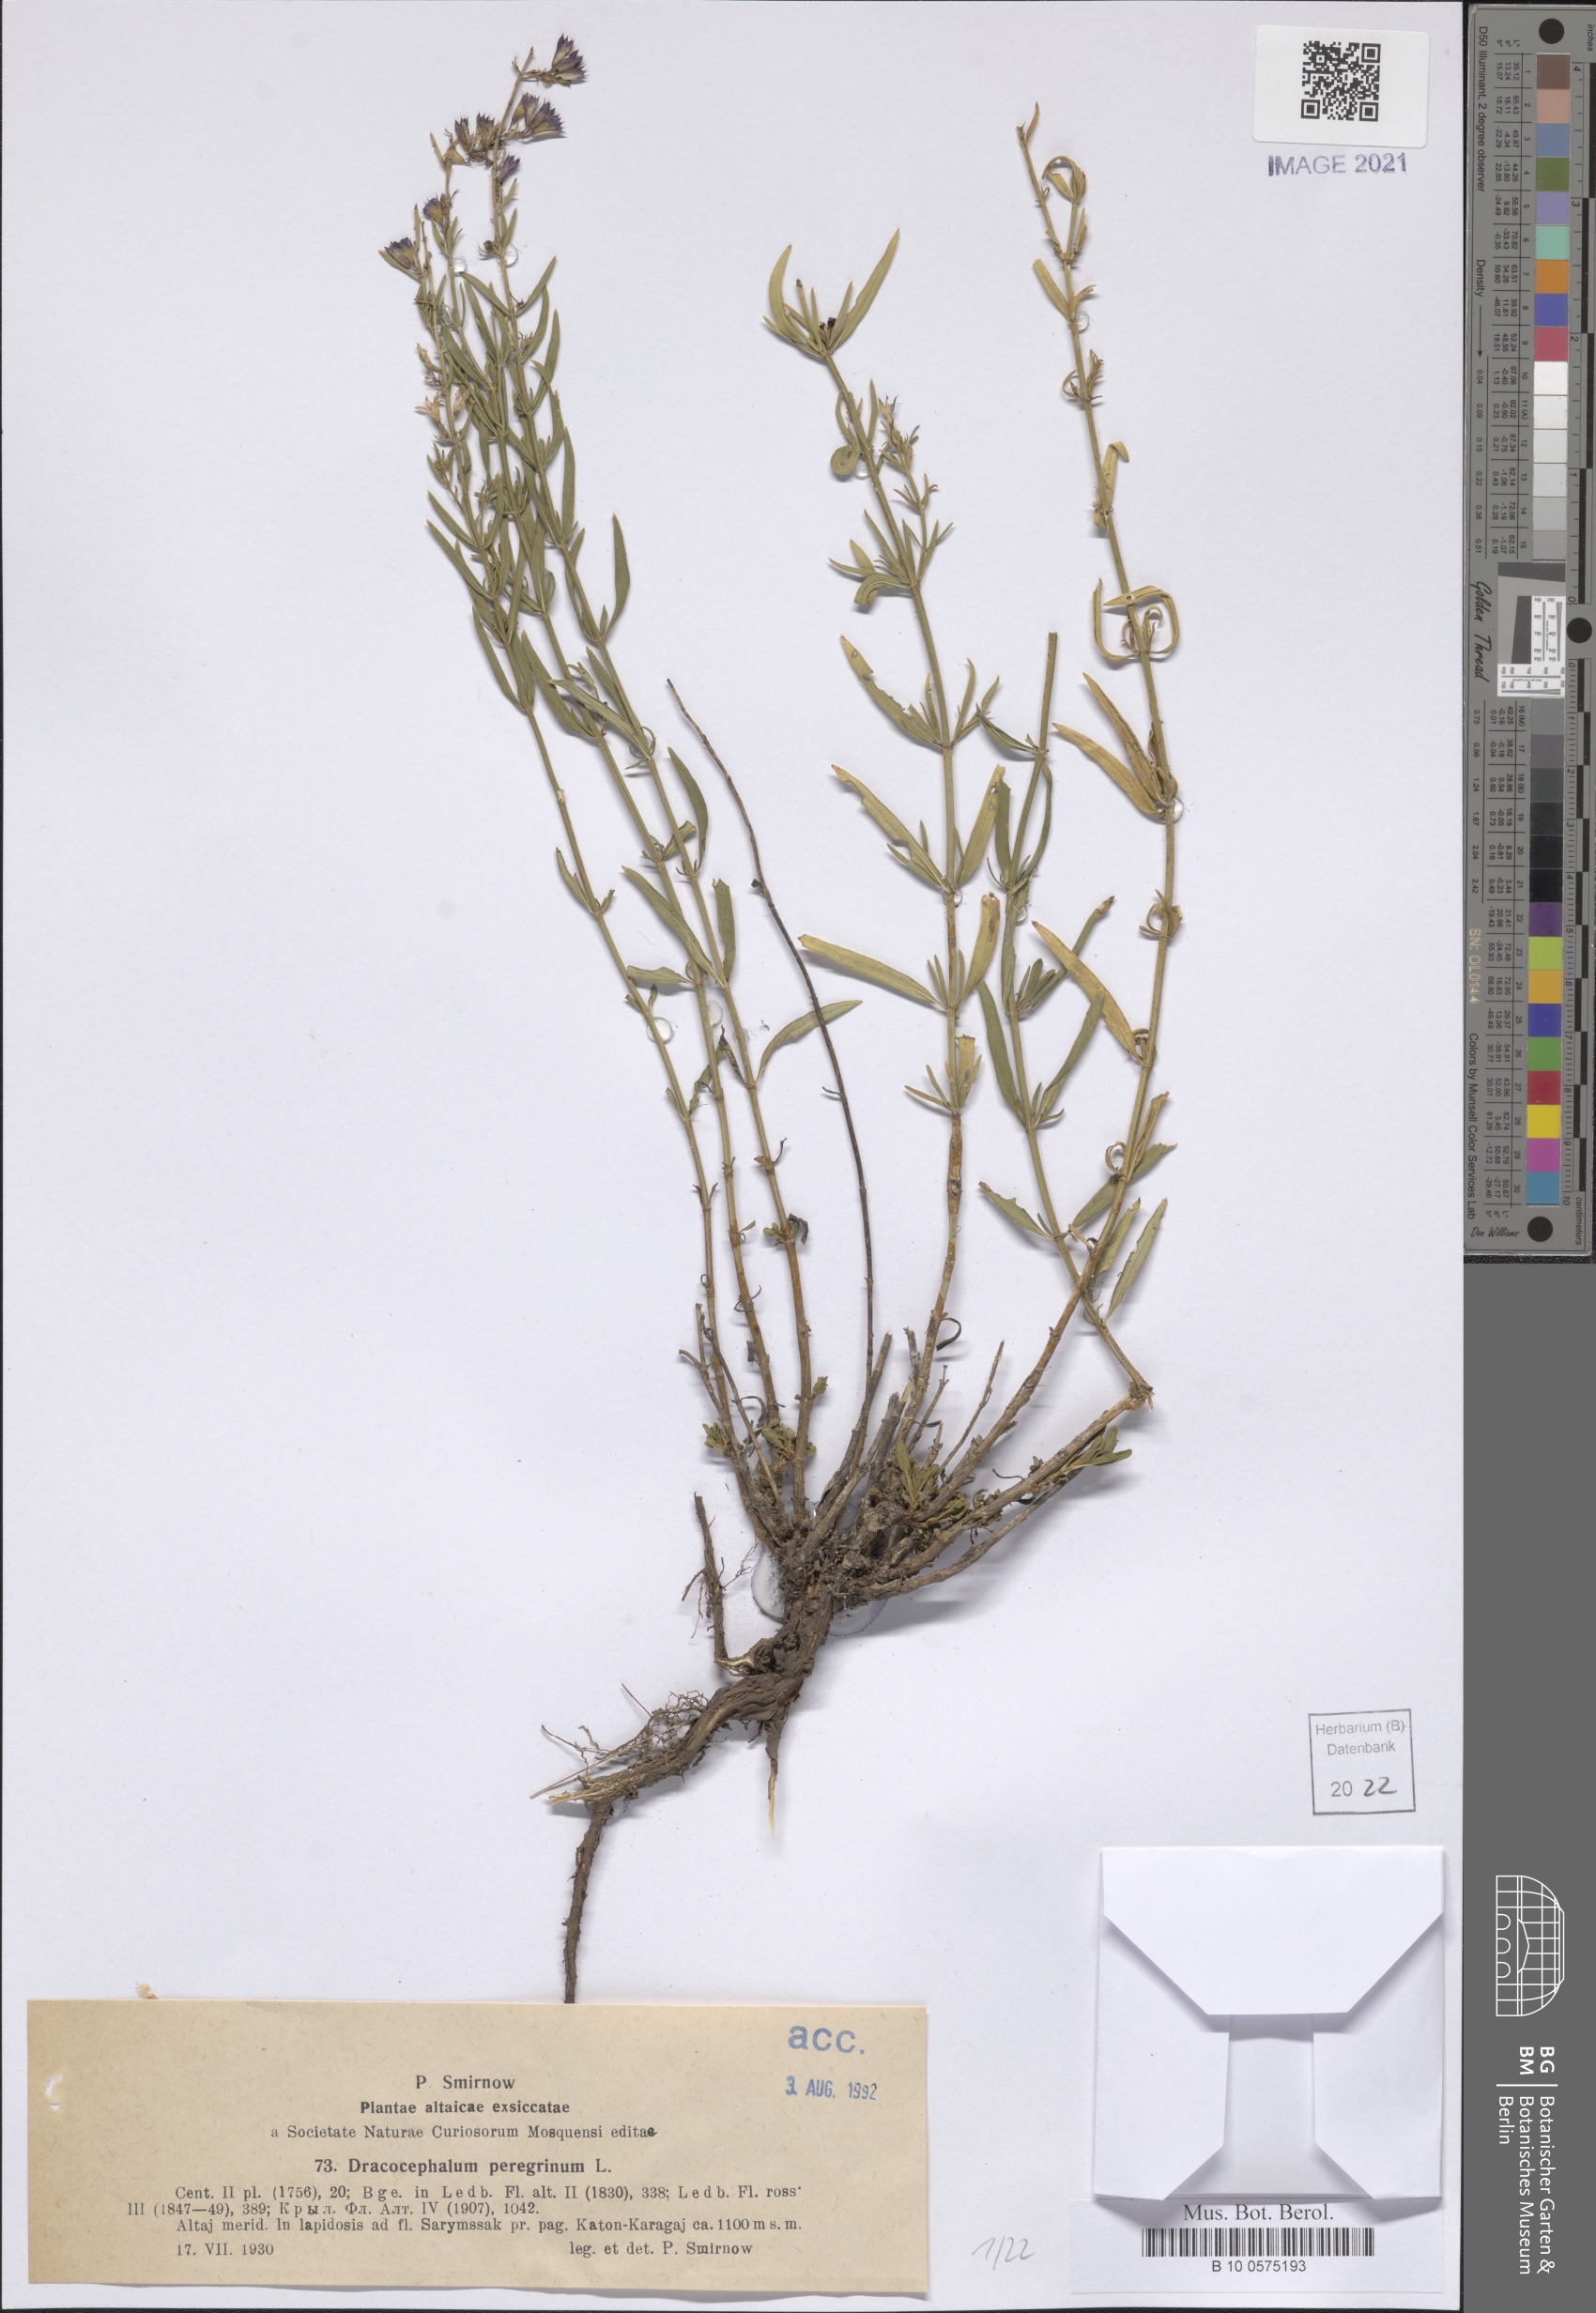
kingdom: Plantae
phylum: Tracheophyta
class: Magnoliopsida
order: Lamiales
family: Lamiaceae
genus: Dracocephalum
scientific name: Dracocephalum peregrinum
